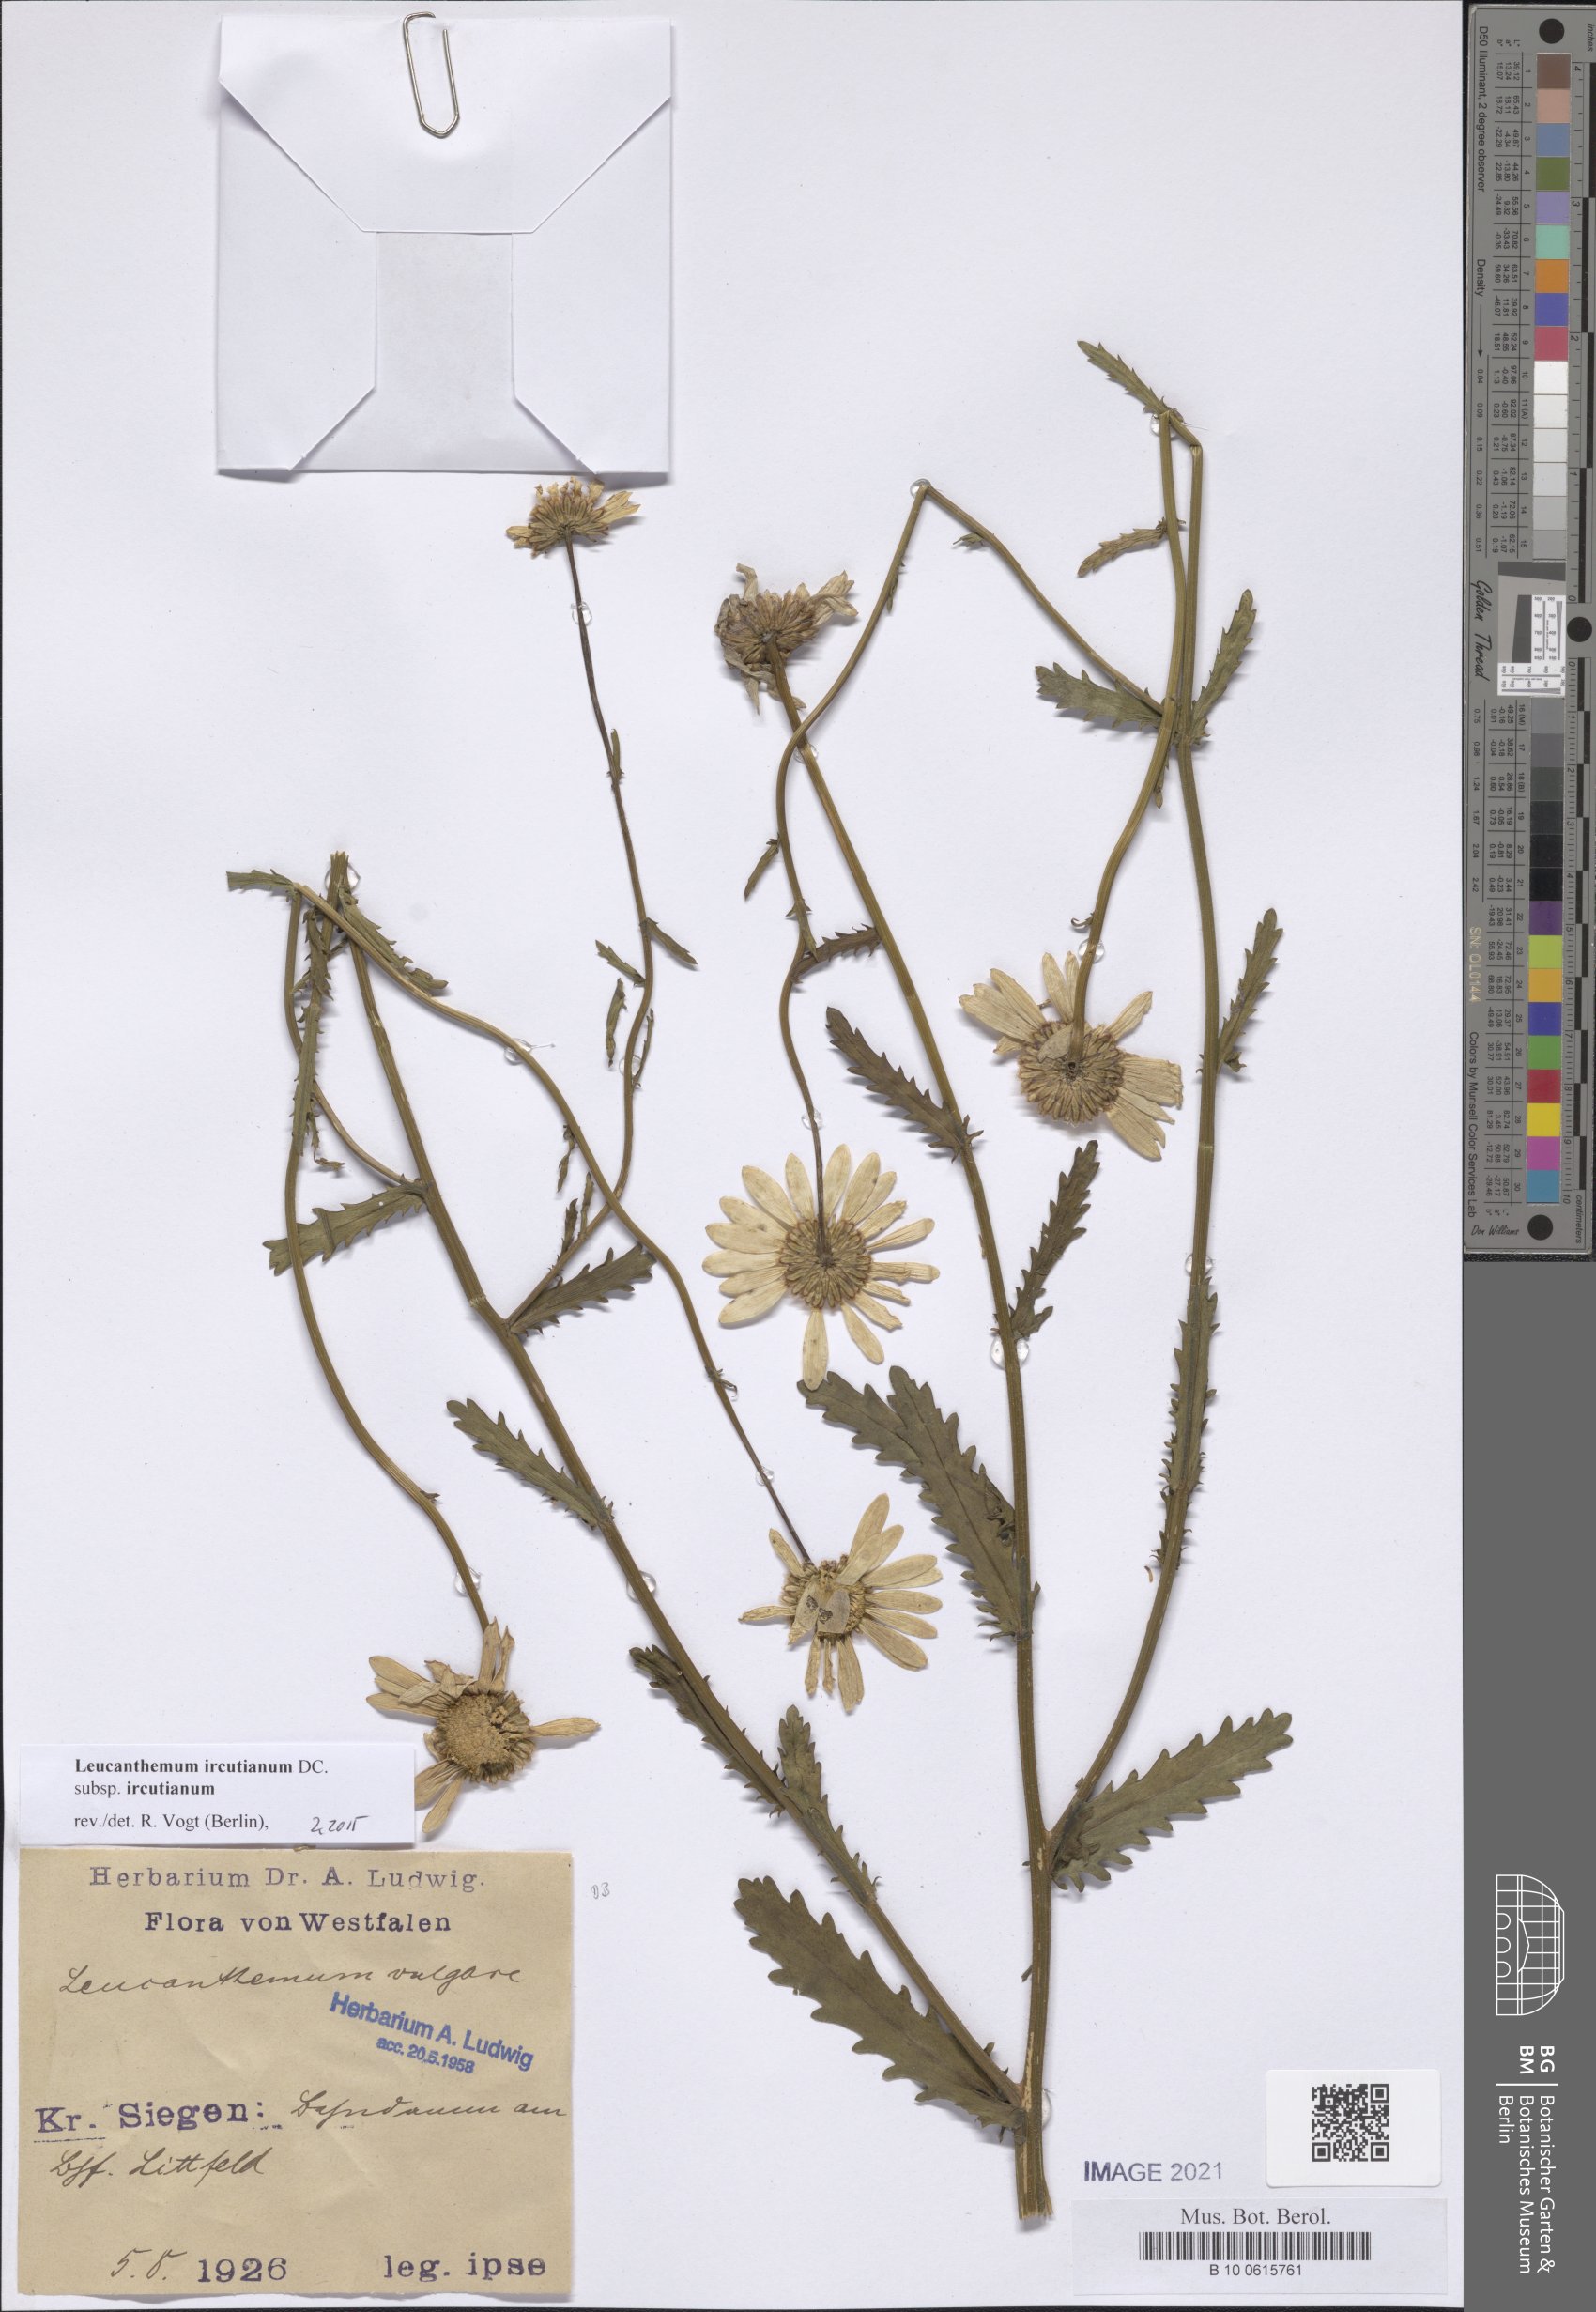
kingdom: Plantae
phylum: Tracheophyta
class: Magnoliopsida
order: Asterales
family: Asteraceae
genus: Leucanthemum
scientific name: Leucanthemum ircutianum
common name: Daisy
